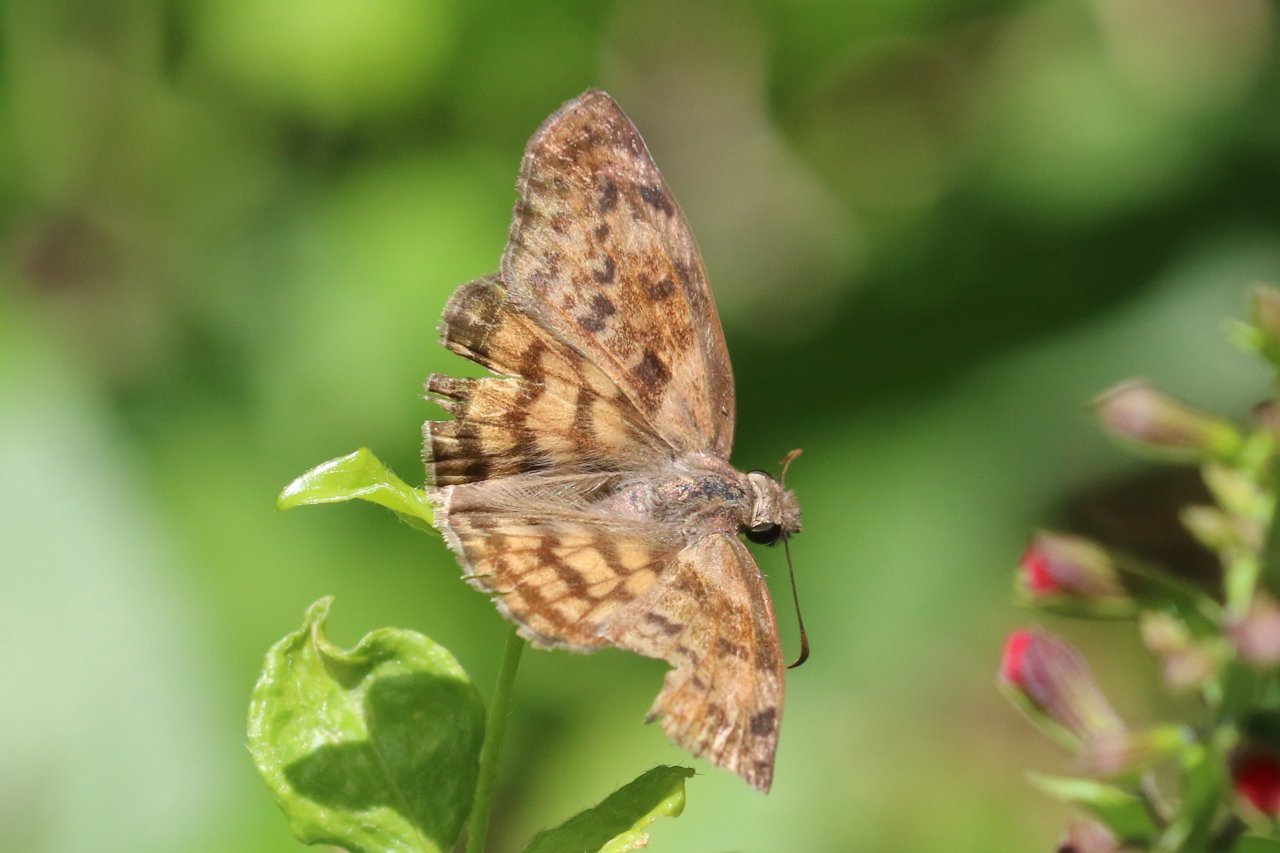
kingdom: Animalia
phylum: Arthropoda
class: Insecta
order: Lepidoptera
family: Hesperiidae
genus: Timochares
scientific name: Timochares ruptifasciata
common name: Brown-banded Skipper
